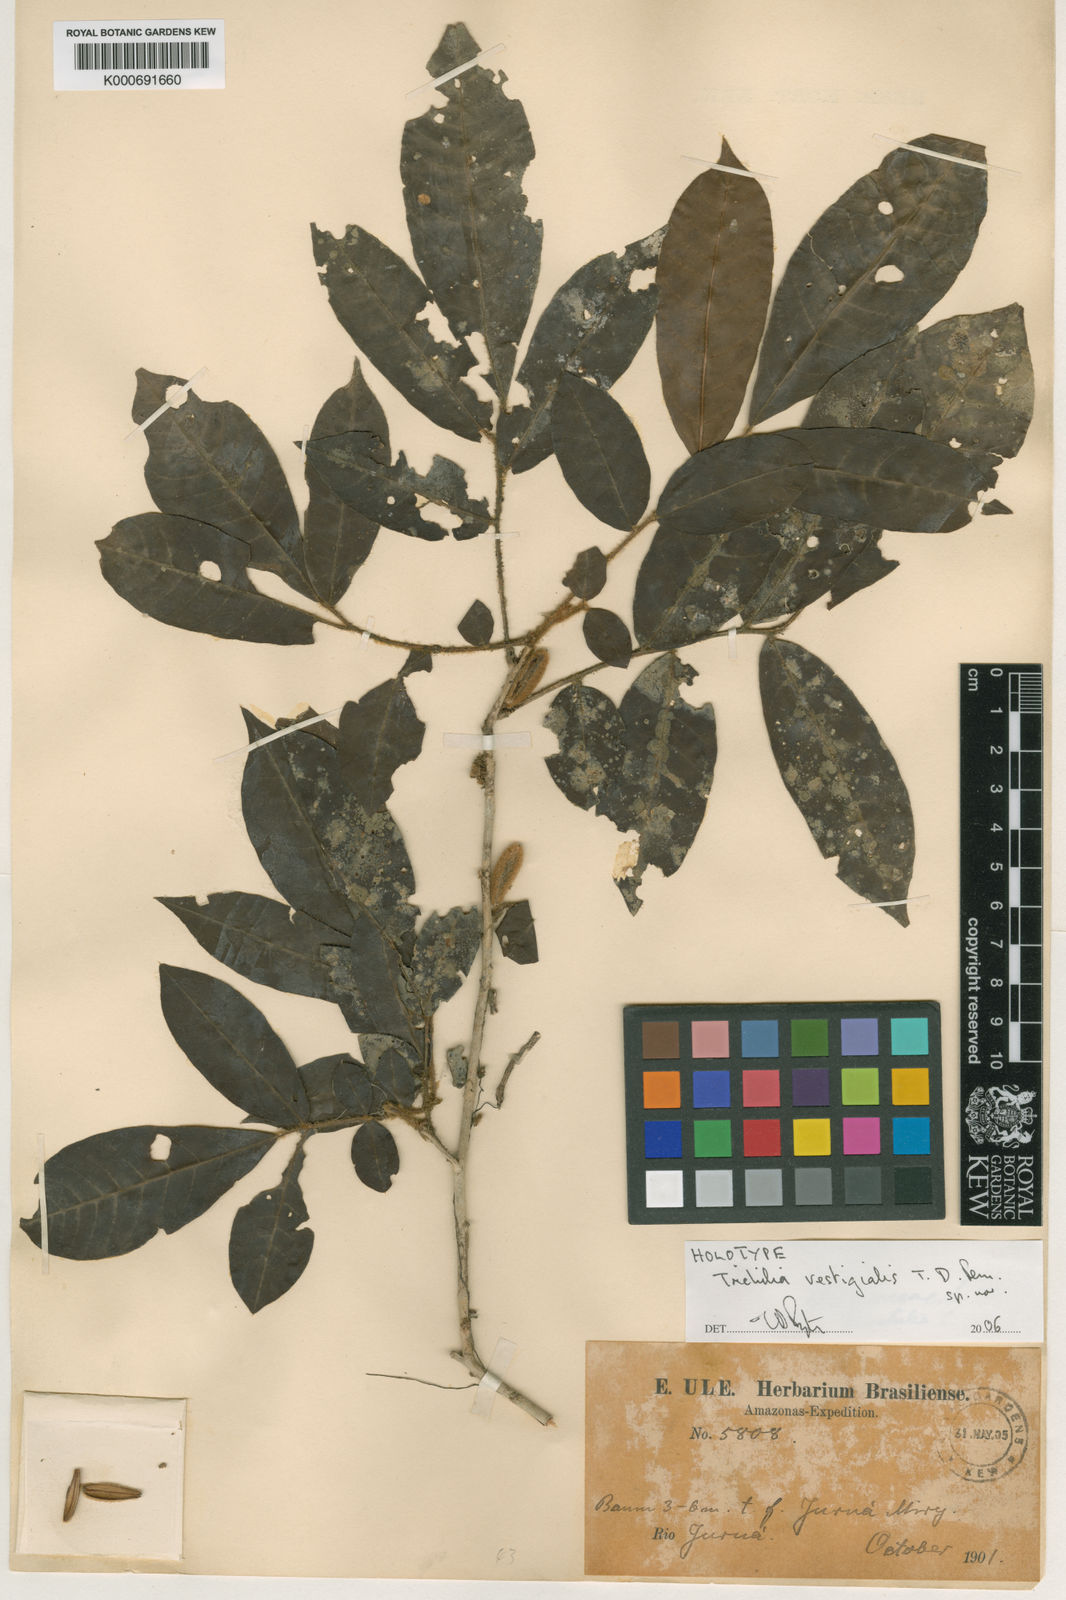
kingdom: Plantae
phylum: Tracheophyta
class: Magnoliopsida
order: Sapindales
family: Meliaceae
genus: Trichilia
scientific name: Trichilia
